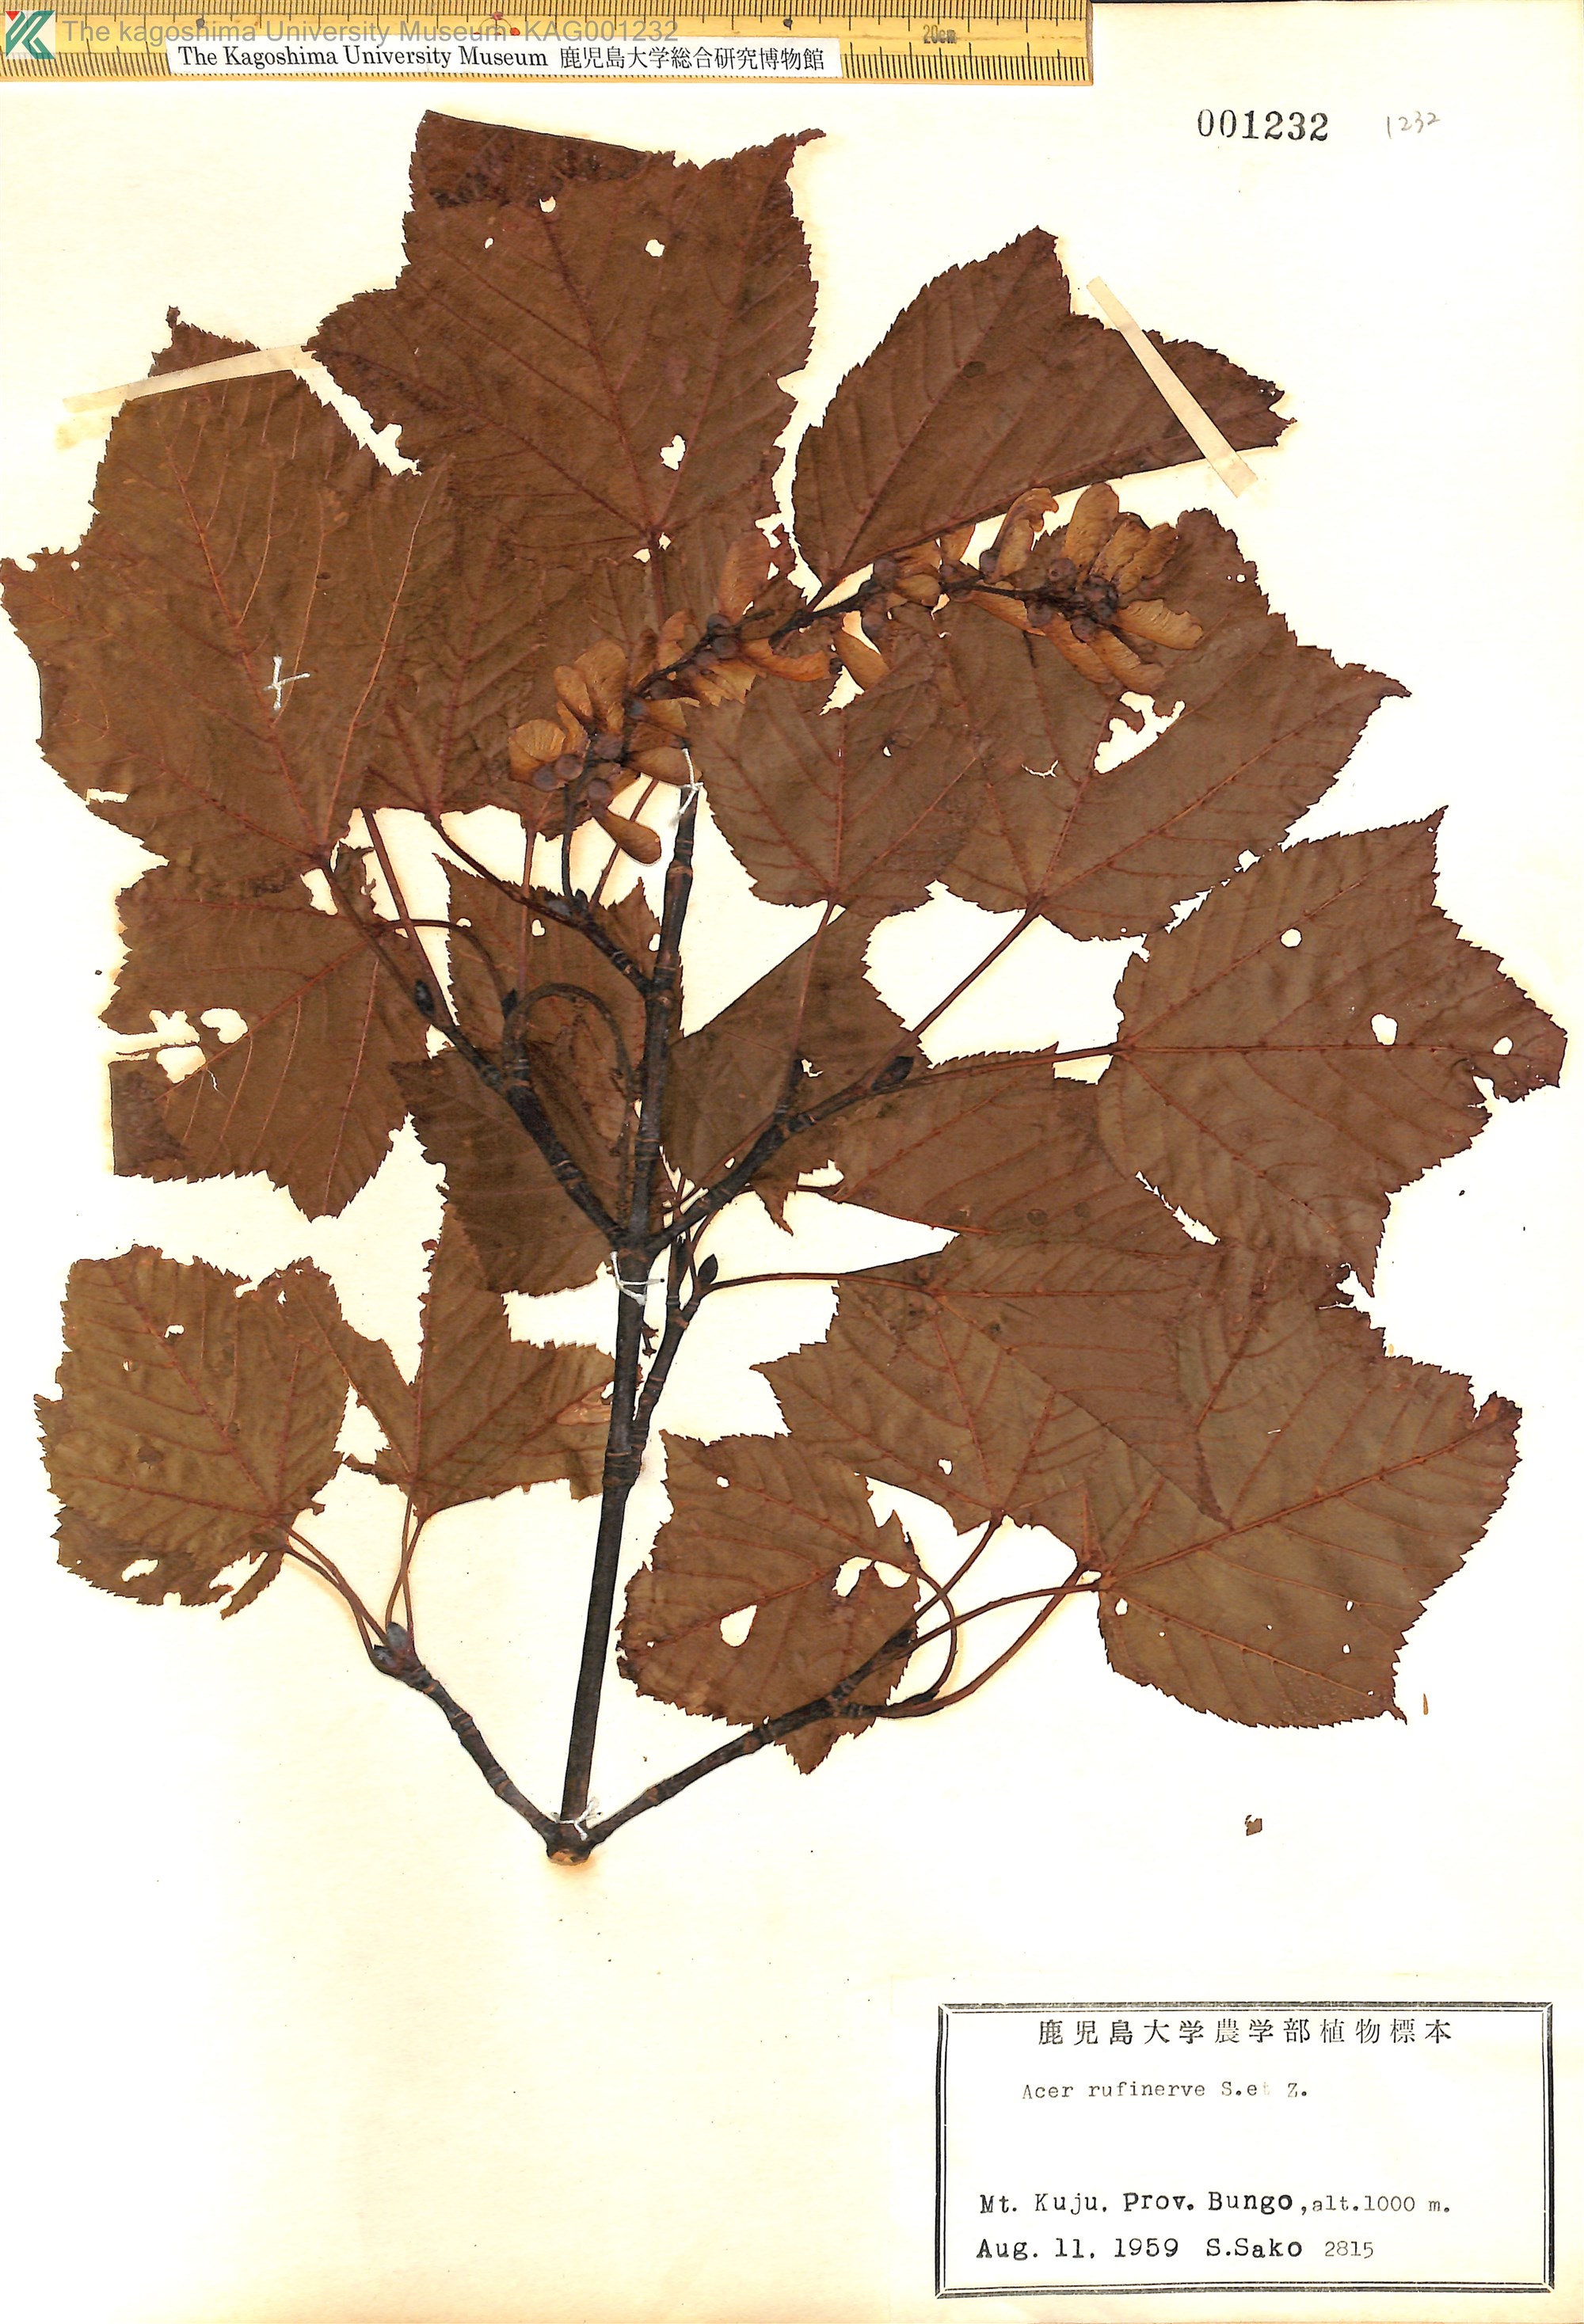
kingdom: Plantae
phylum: Tracheophyta
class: Magnoliopsida
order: Sapindales
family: Sapindaceae
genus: Acer
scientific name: Acer rufinerve
